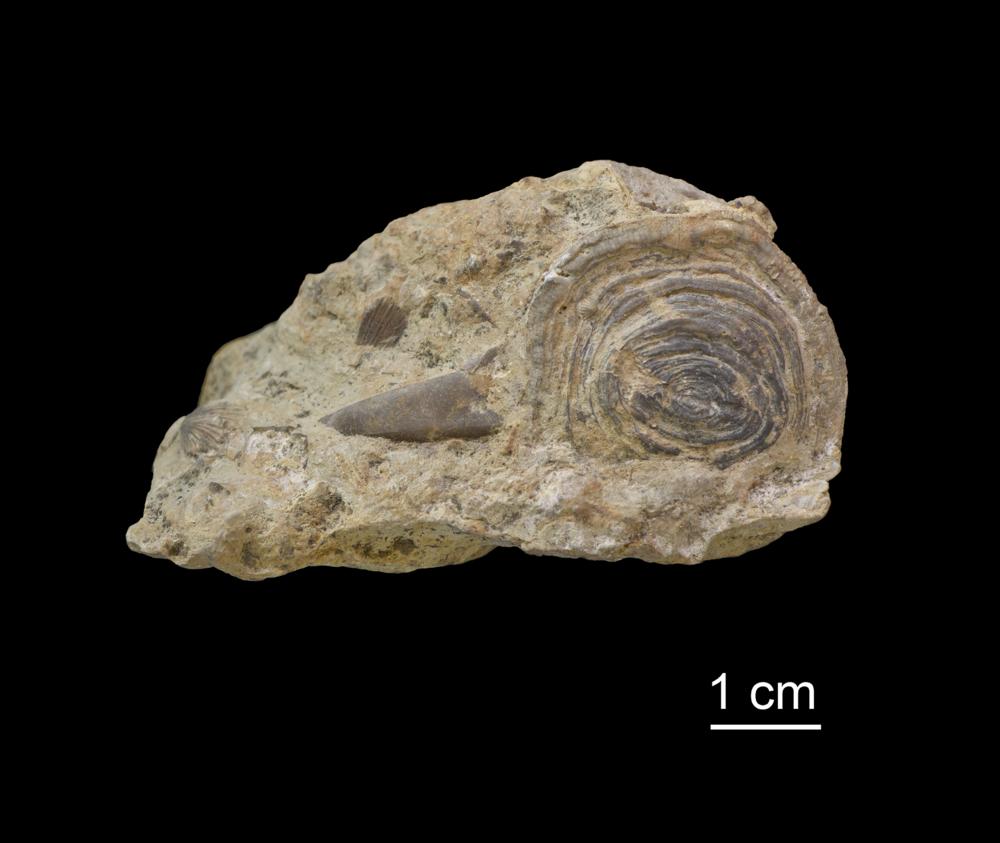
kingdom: Animalia
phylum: Bryozoa
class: Stenolaemata
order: Cystoporida
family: Ceramoporidae
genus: Favositella
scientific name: Favositella exserta
